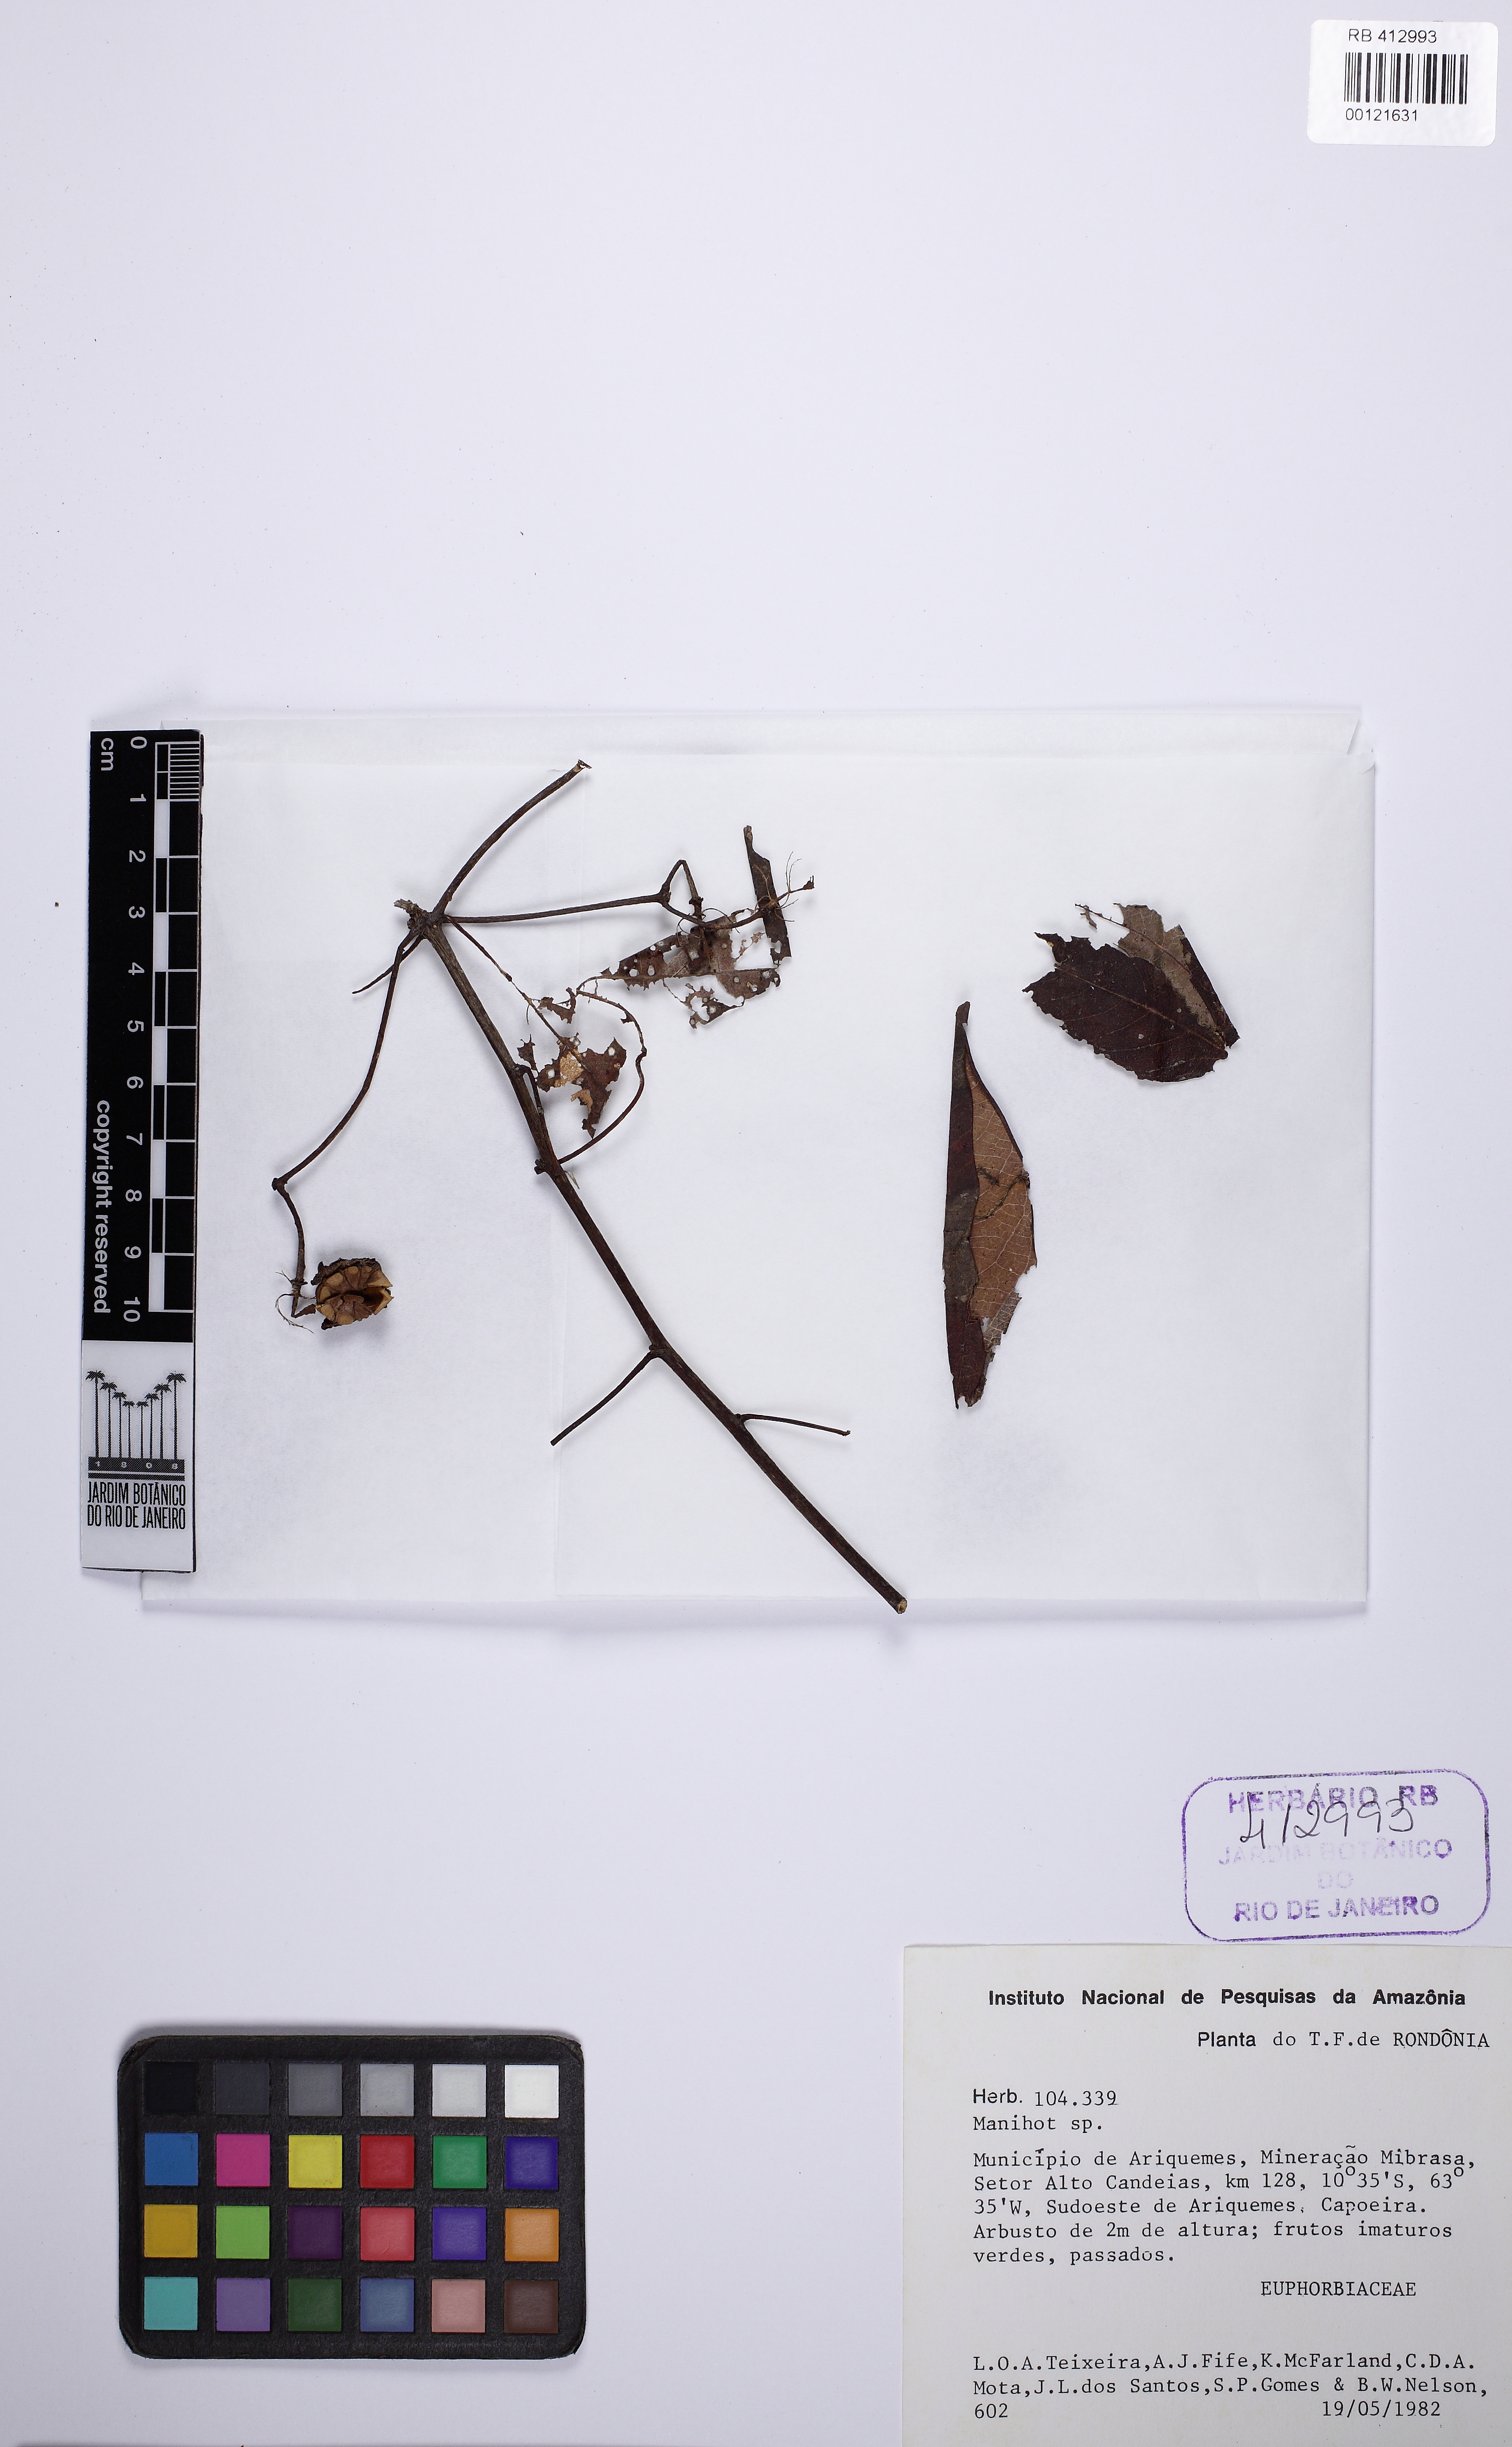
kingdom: Plantae
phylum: Tracheophyta
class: Magnoliopsida
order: Malpighiales
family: Euphorbiaceae
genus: Manihot
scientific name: Manihot esculenta
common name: Cassava
